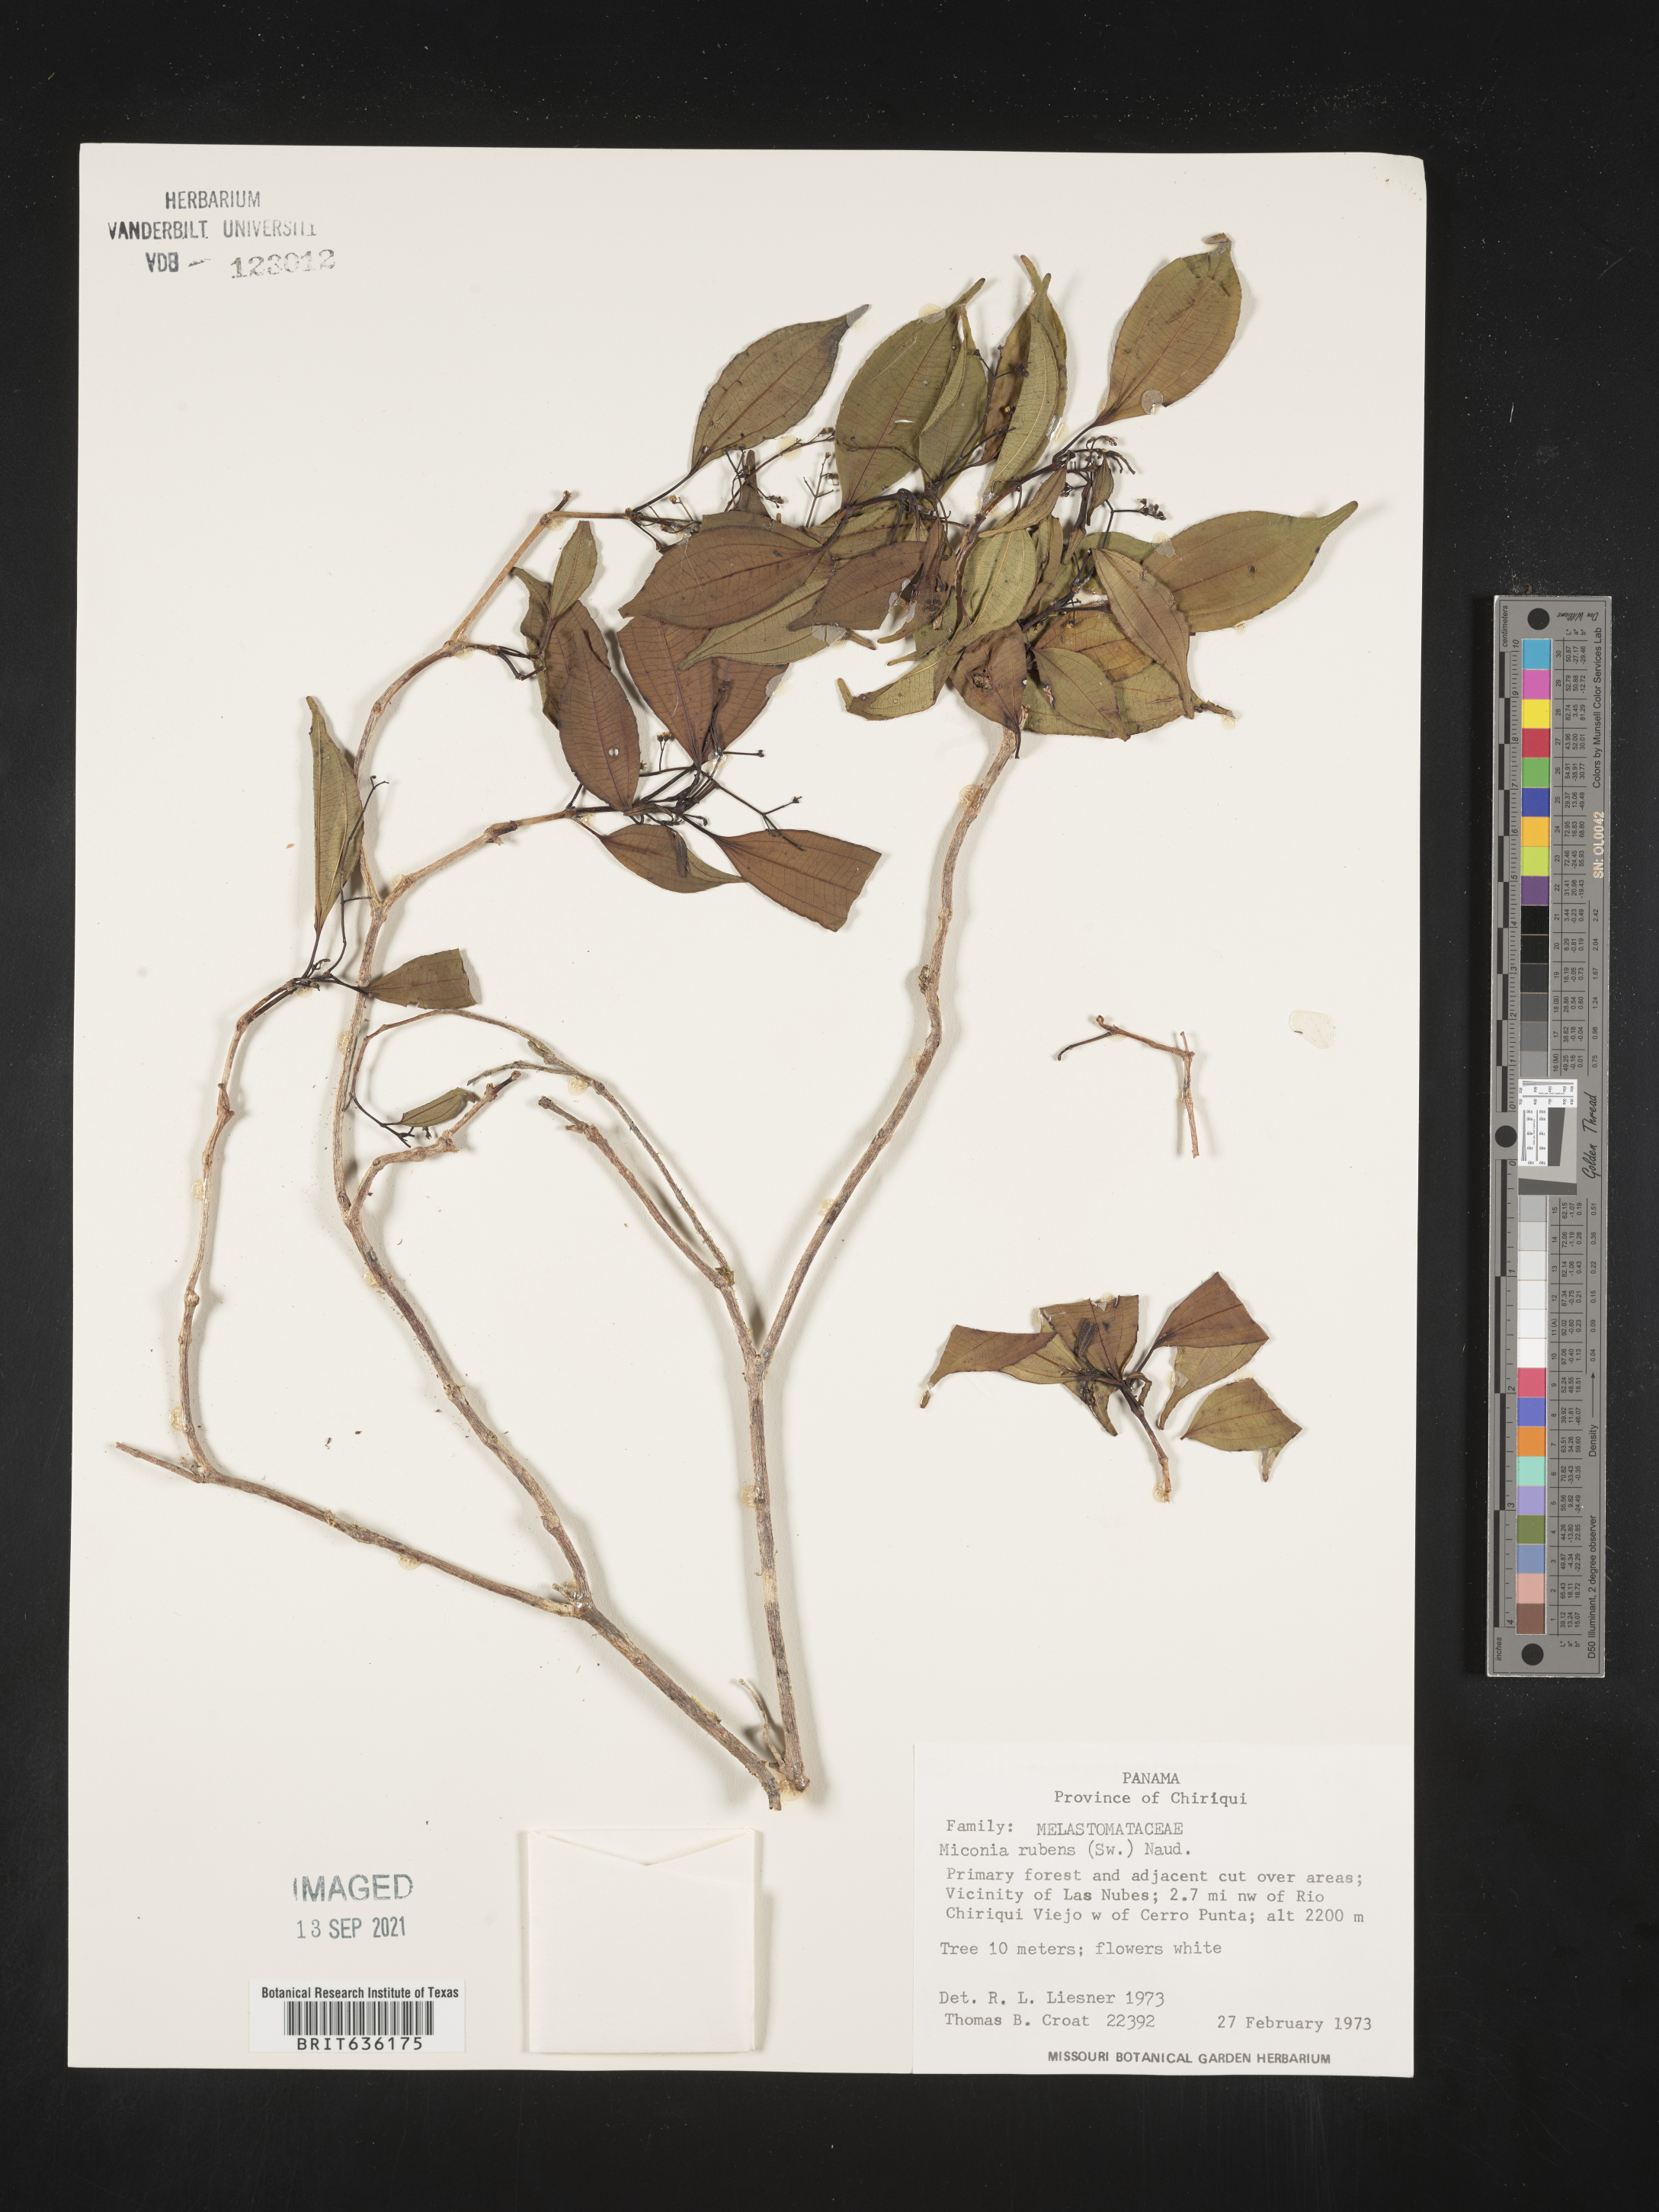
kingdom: Plantae
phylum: Tracheophyta
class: Magnoliopsida
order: Myrtales
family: Melastomataceae
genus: Miconia
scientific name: Miconia
